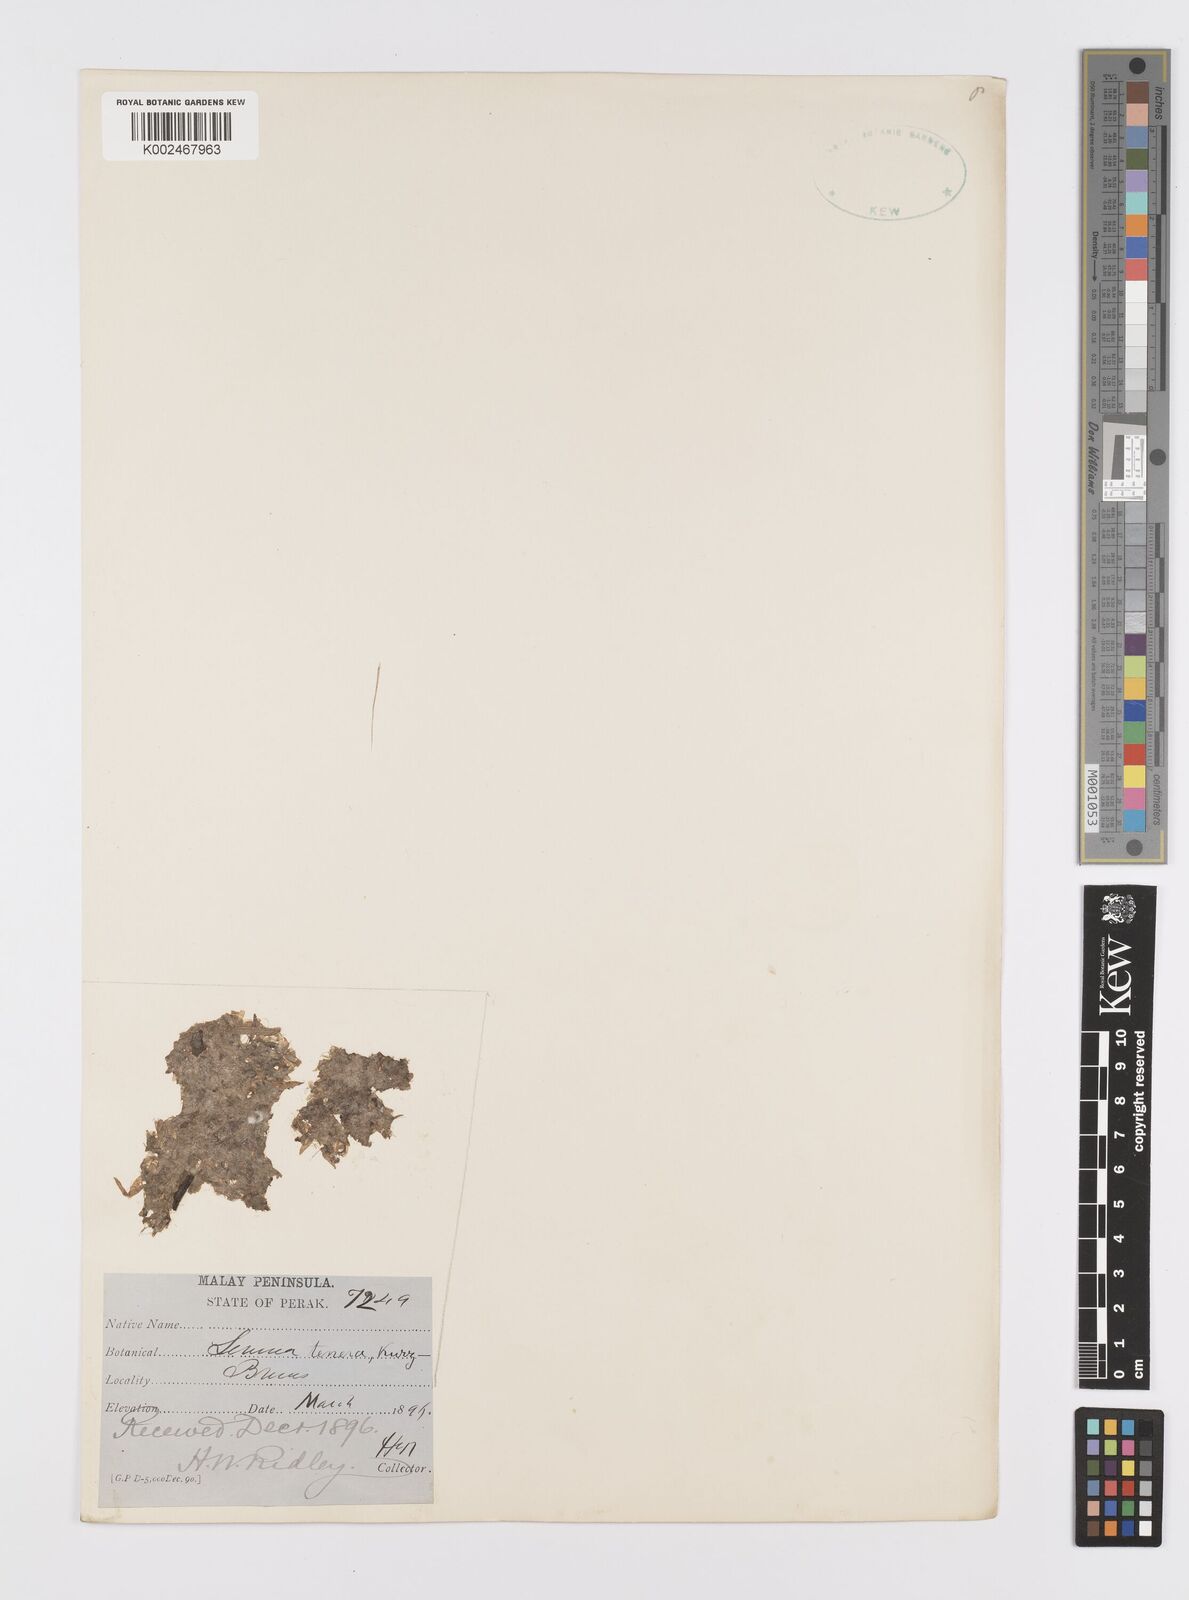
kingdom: Plantae
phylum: Tracheophyta
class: Liliopsida
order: Alismatales
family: Araceae
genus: Lemna
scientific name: Lemna tenera
